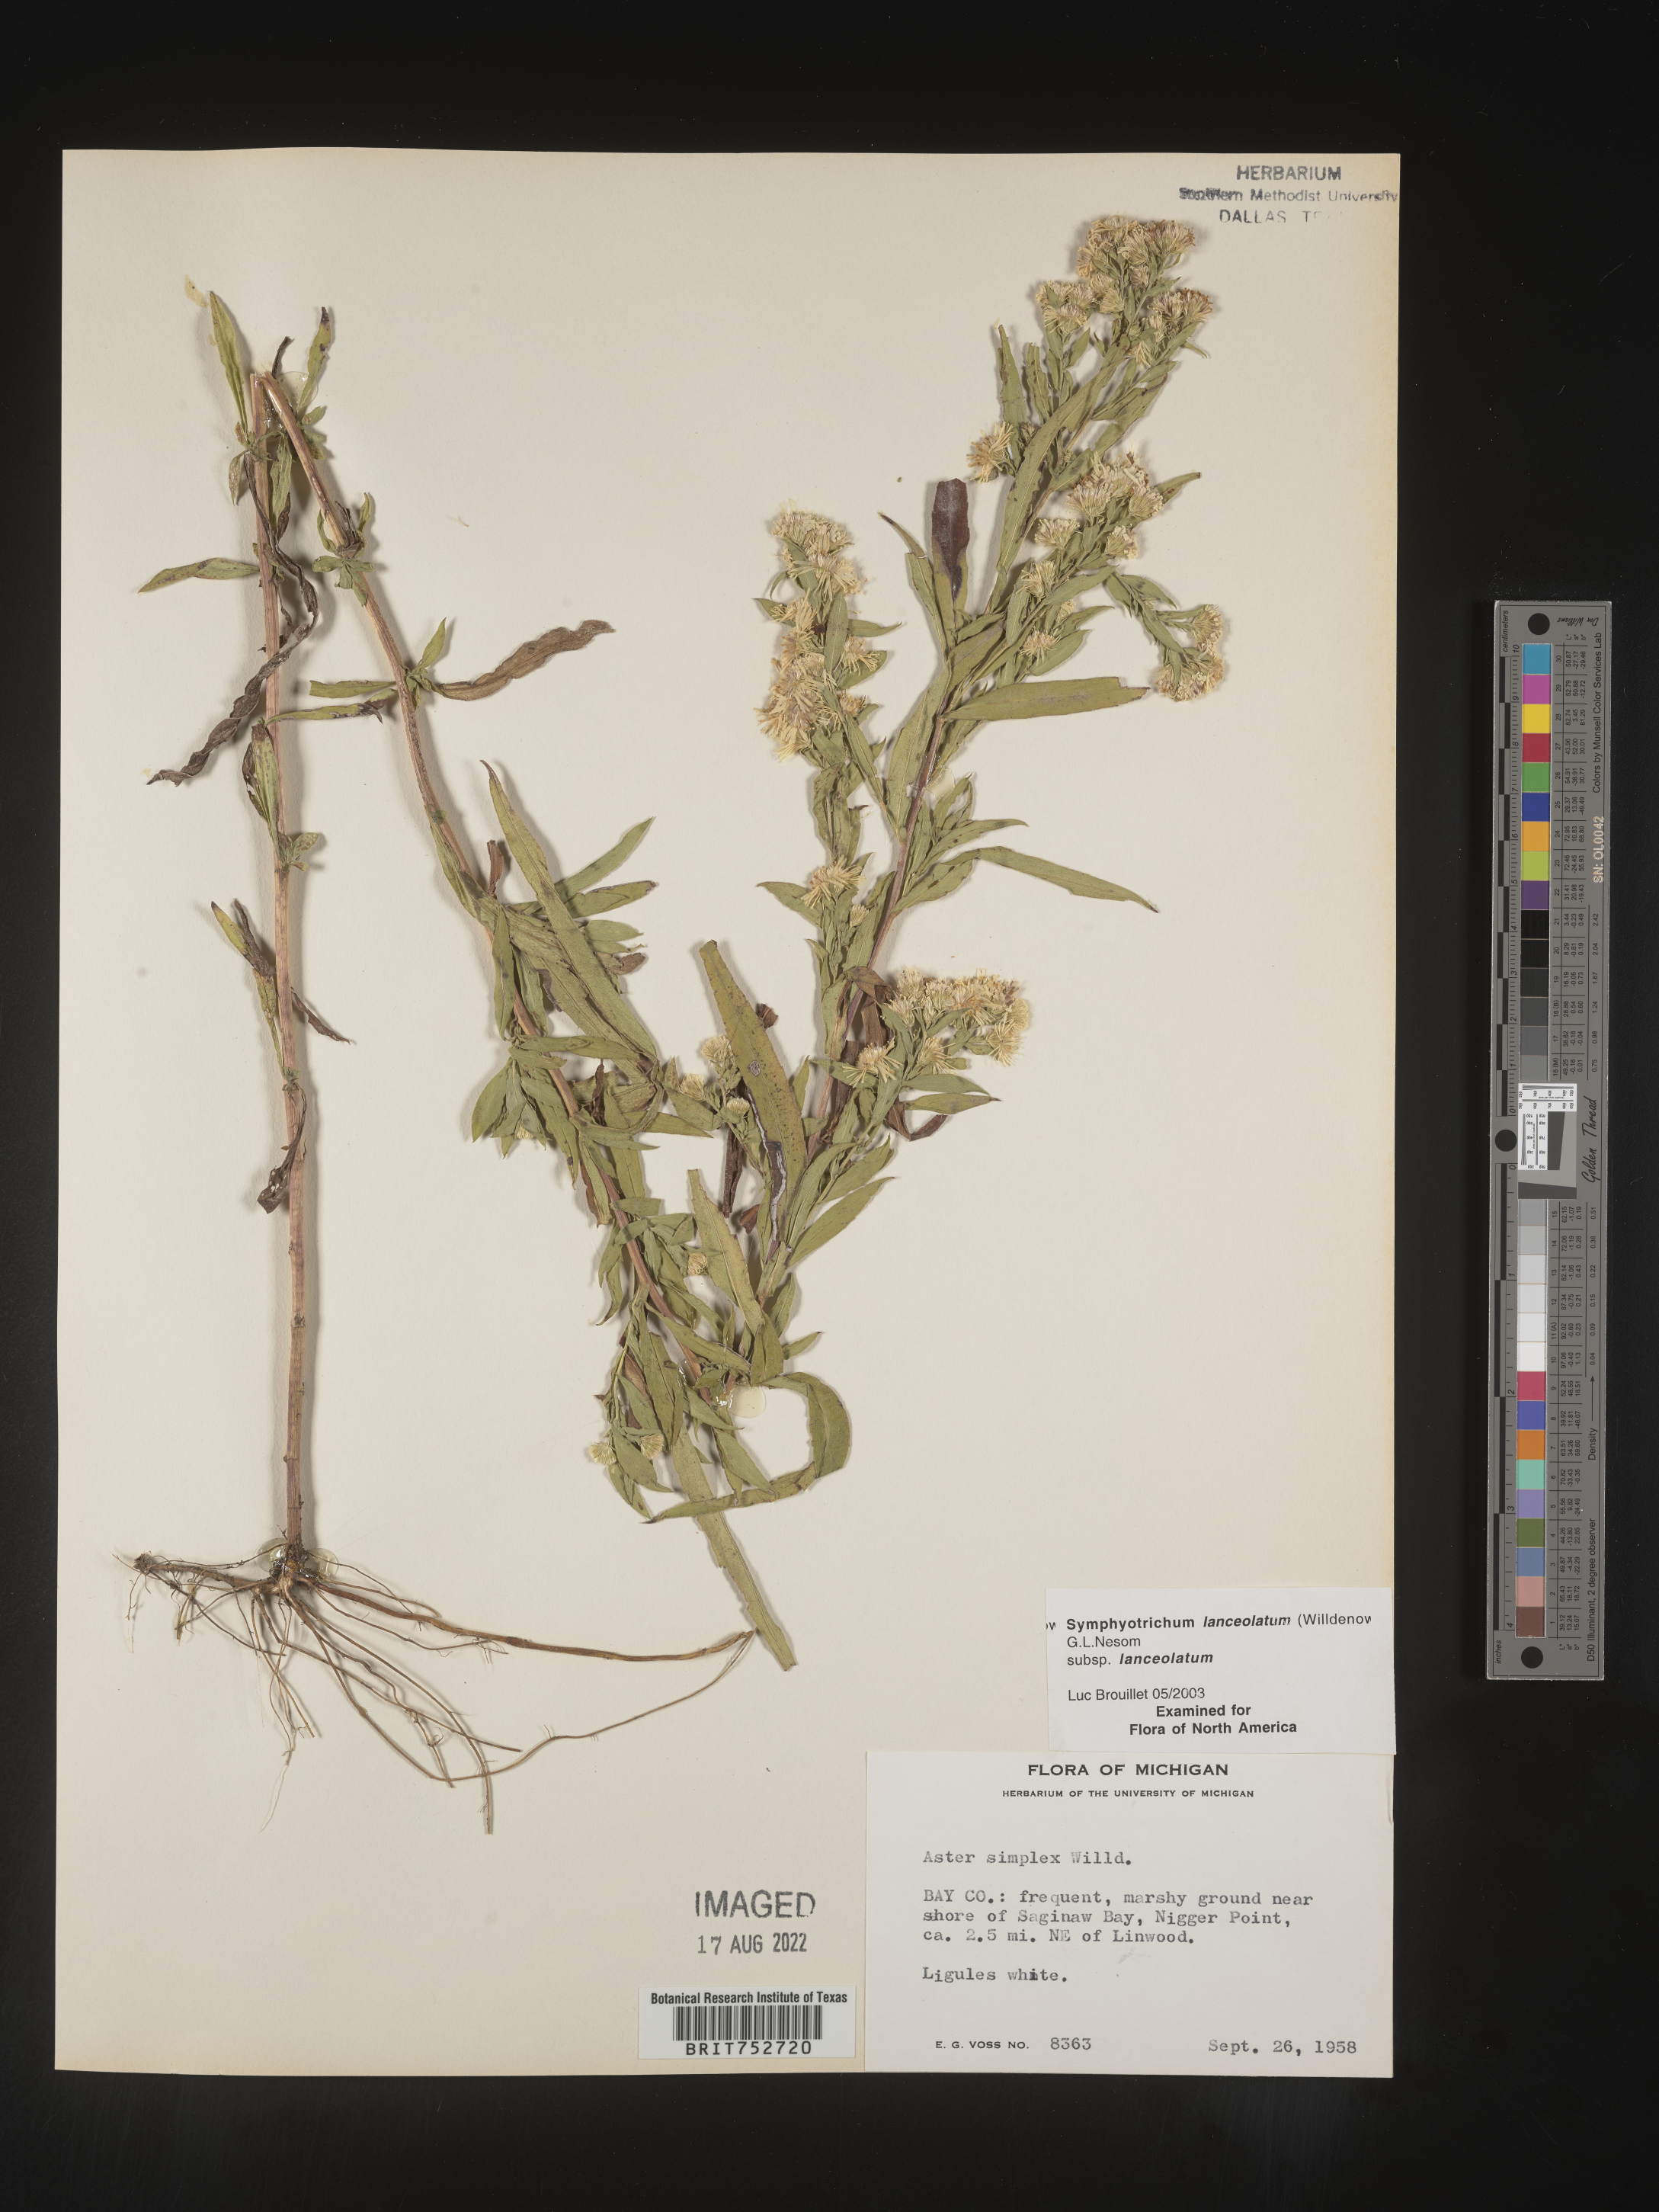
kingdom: Plantae
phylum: Tracheophyta
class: Magnoliopsida
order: Asterales
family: Asteraceae
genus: Symphyotrichum
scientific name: Symphyotrichum lanceolatum
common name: Panicled aster
